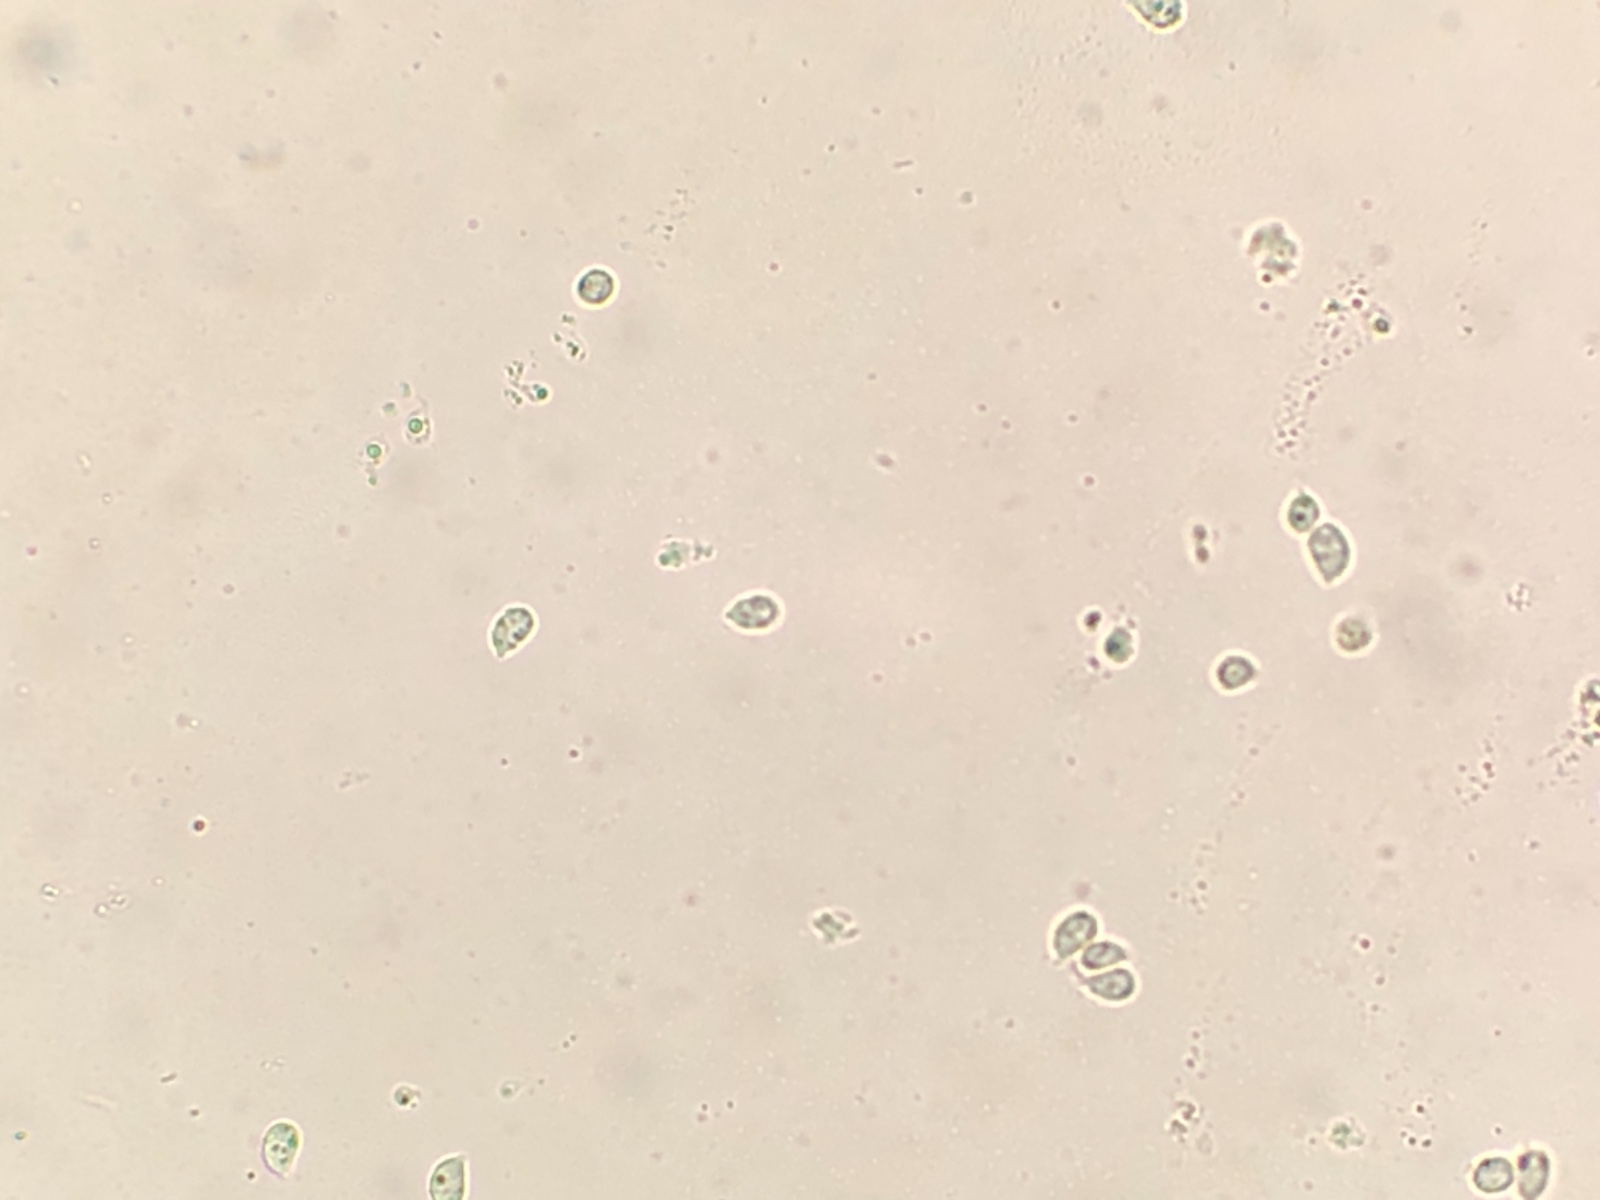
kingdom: Fungi
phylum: Basidiomycota
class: Agaricomycetes
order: Agaricales
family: Hygrophoraceae
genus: Arrhenia
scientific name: Arrhenia
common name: fontænehat
